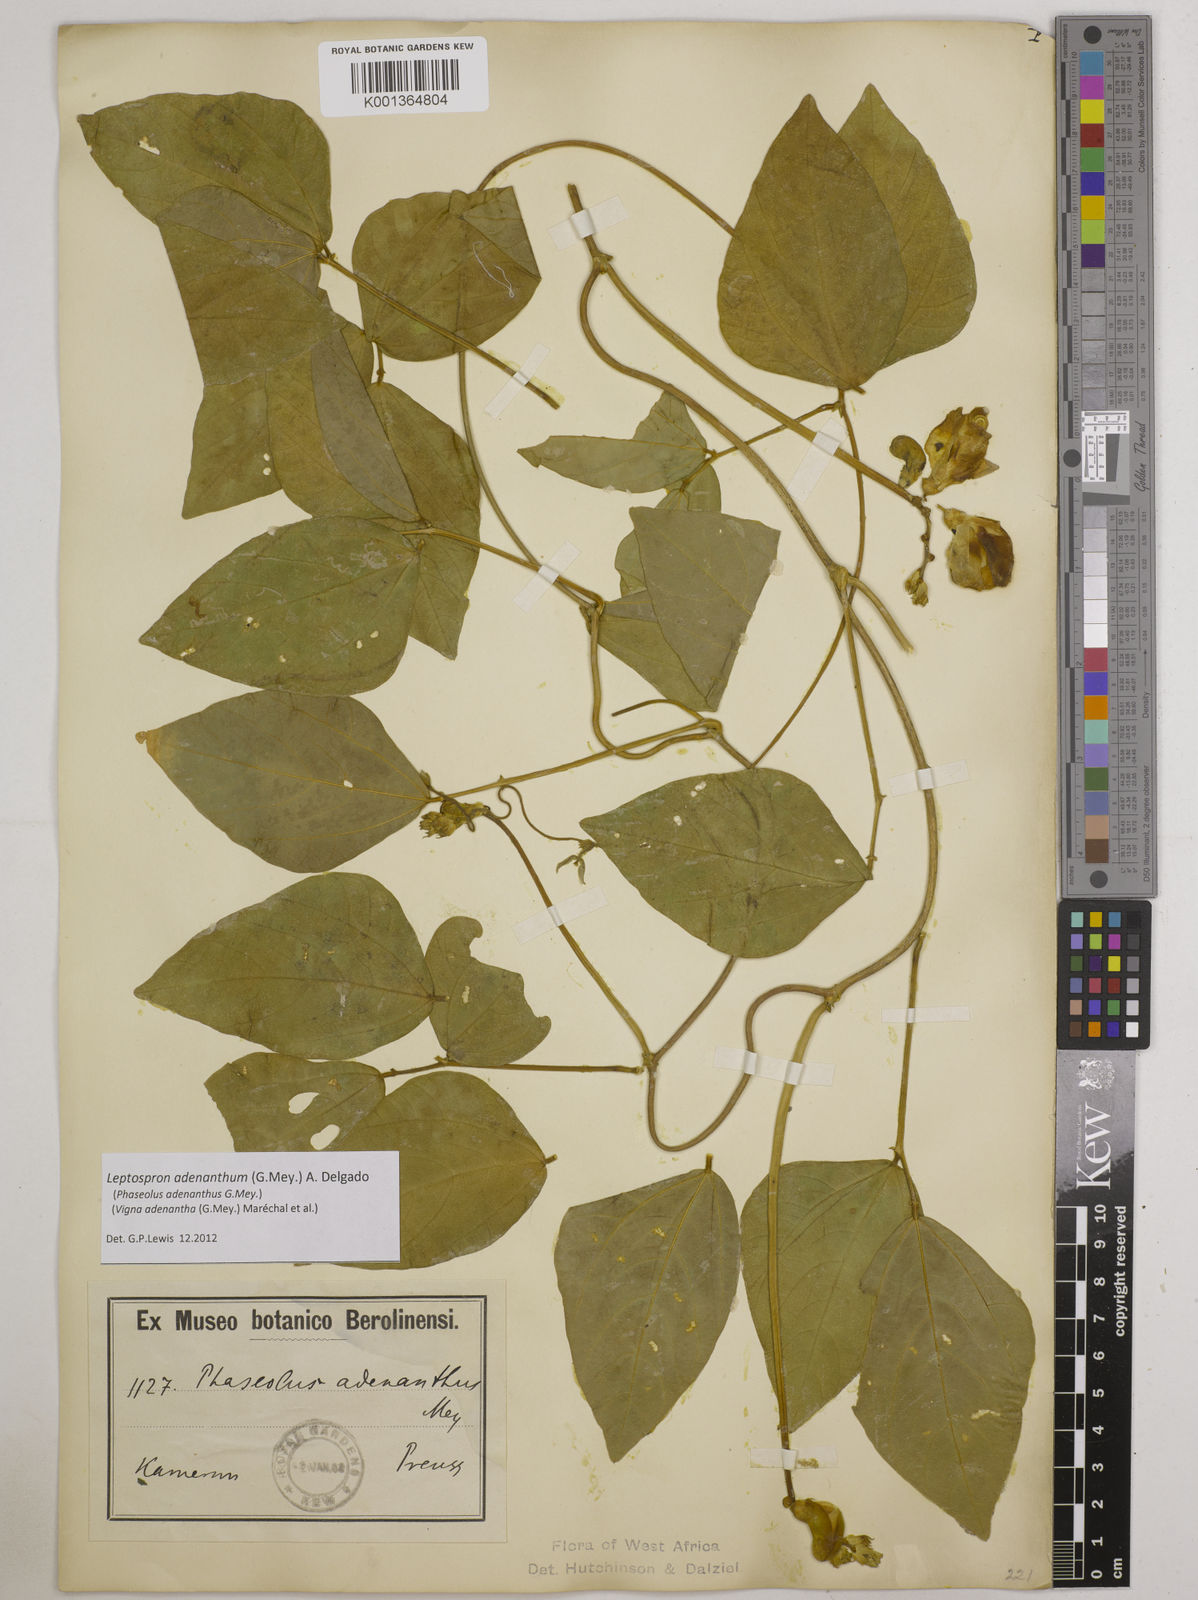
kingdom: Plantae
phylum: Tracheophyta
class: Magnoliopsida
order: Fabales
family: Fabaceae
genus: Leptospron
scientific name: Leptospron adenanthum
